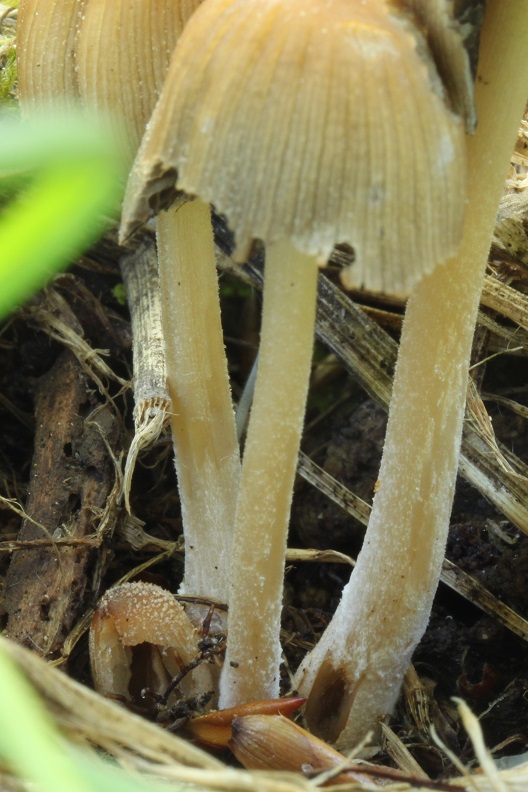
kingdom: Fungi
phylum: Basidiomycota
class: Agaricomycetes
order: Agaricales
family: Psathyrellaceae
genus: Coprinellus
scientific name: Coprinellus micaceus
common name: glimmer-blækhat
